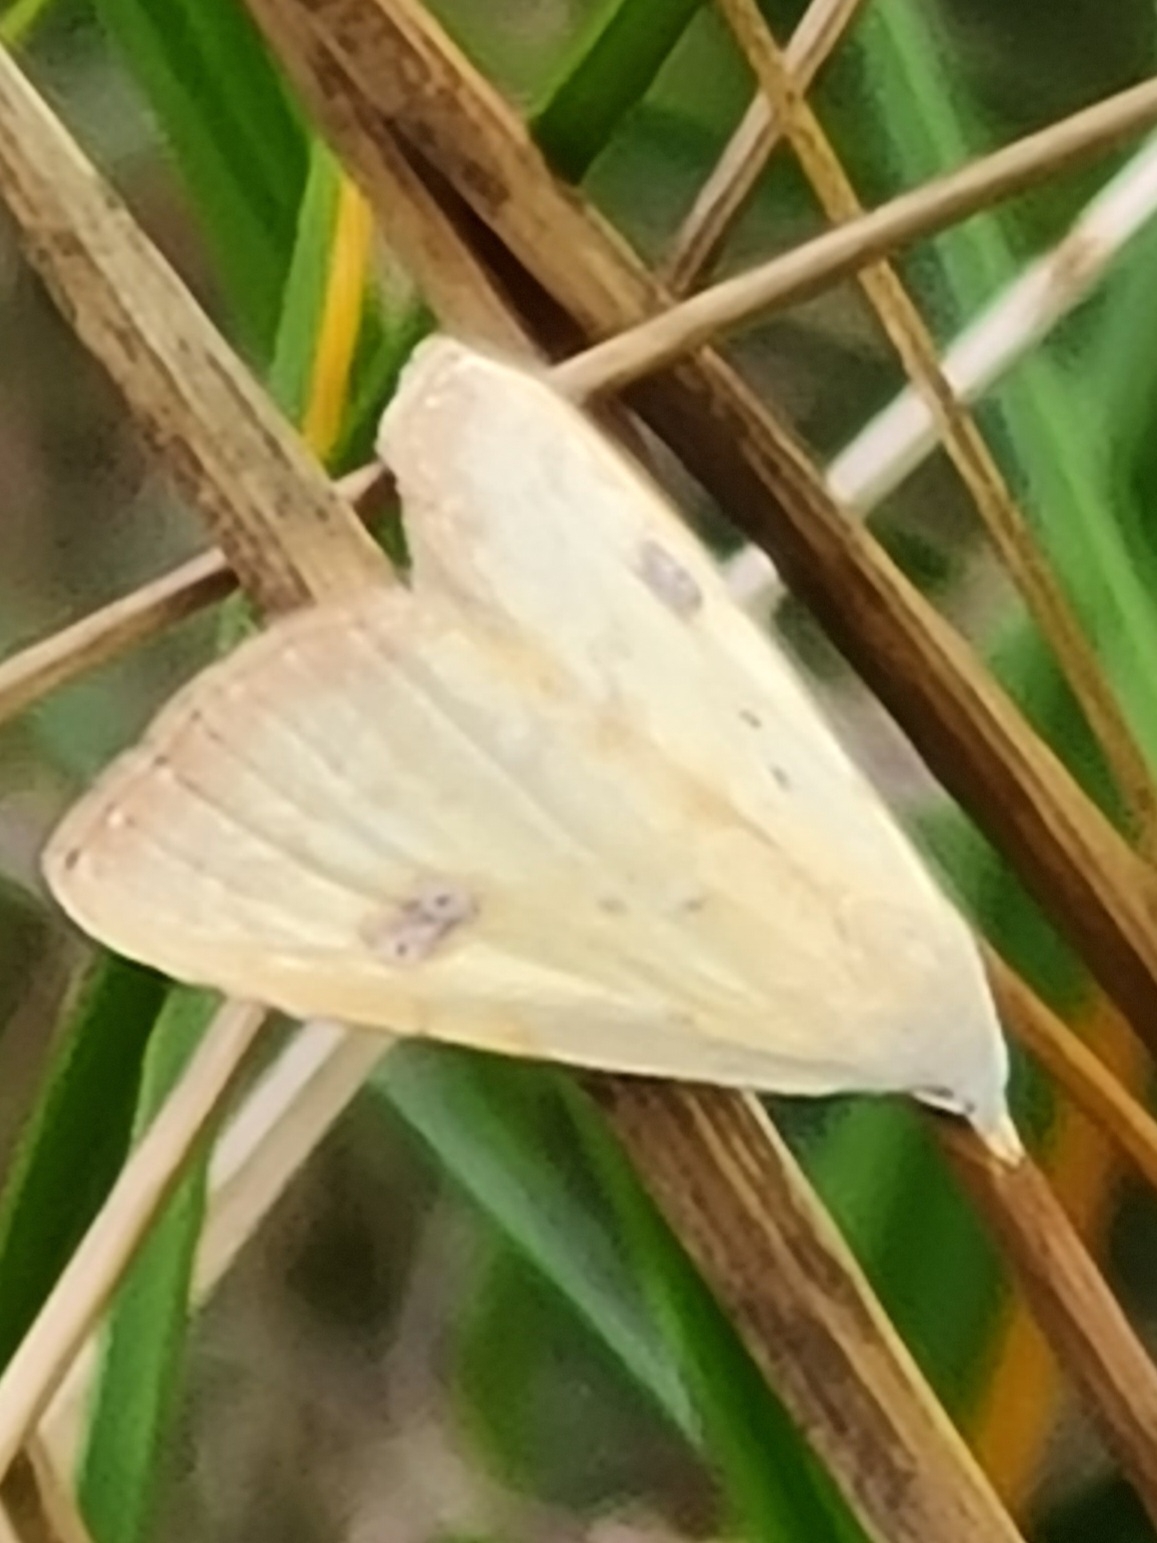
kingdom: Animalia
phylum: Arthropoda
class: Insecta
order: Lepidoptera
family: Erebidae
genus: Rivula
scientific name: Rivula sericealis
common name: Lille å-ugle
